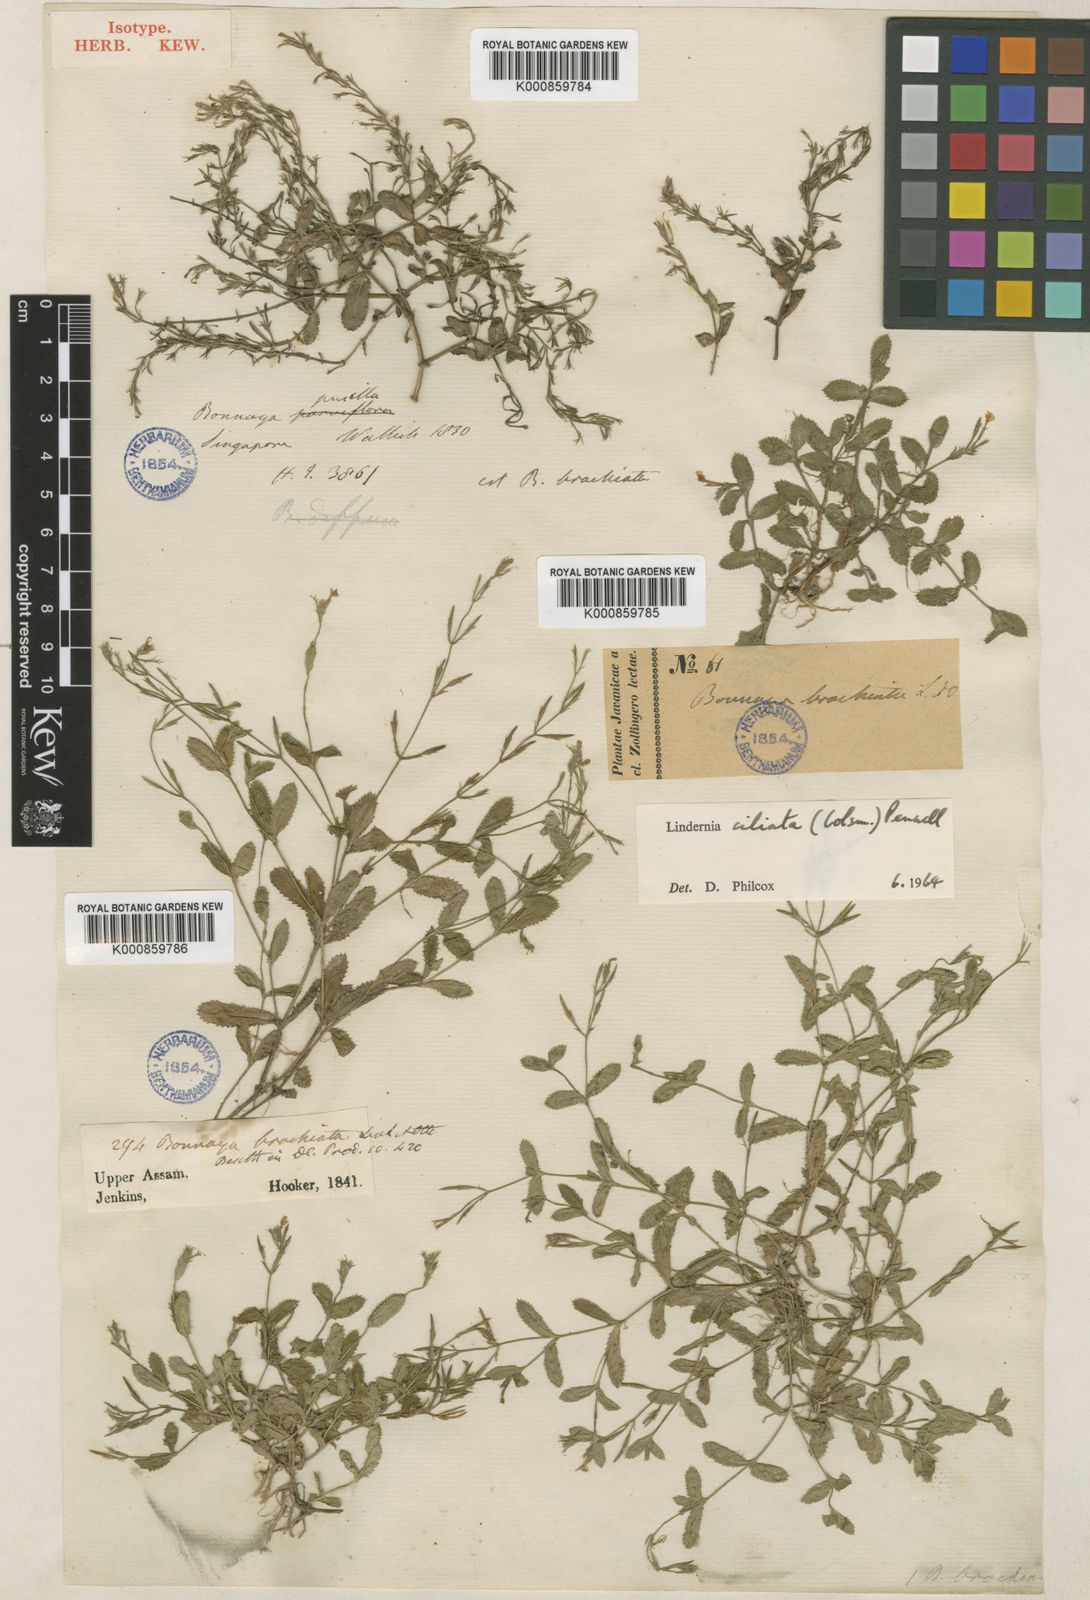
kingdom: Plantae
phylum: Tracheophyta
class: Magnoliopsida
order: Lamiales
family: Linderniaceae
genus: Torenia
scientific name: Torenia davidii
